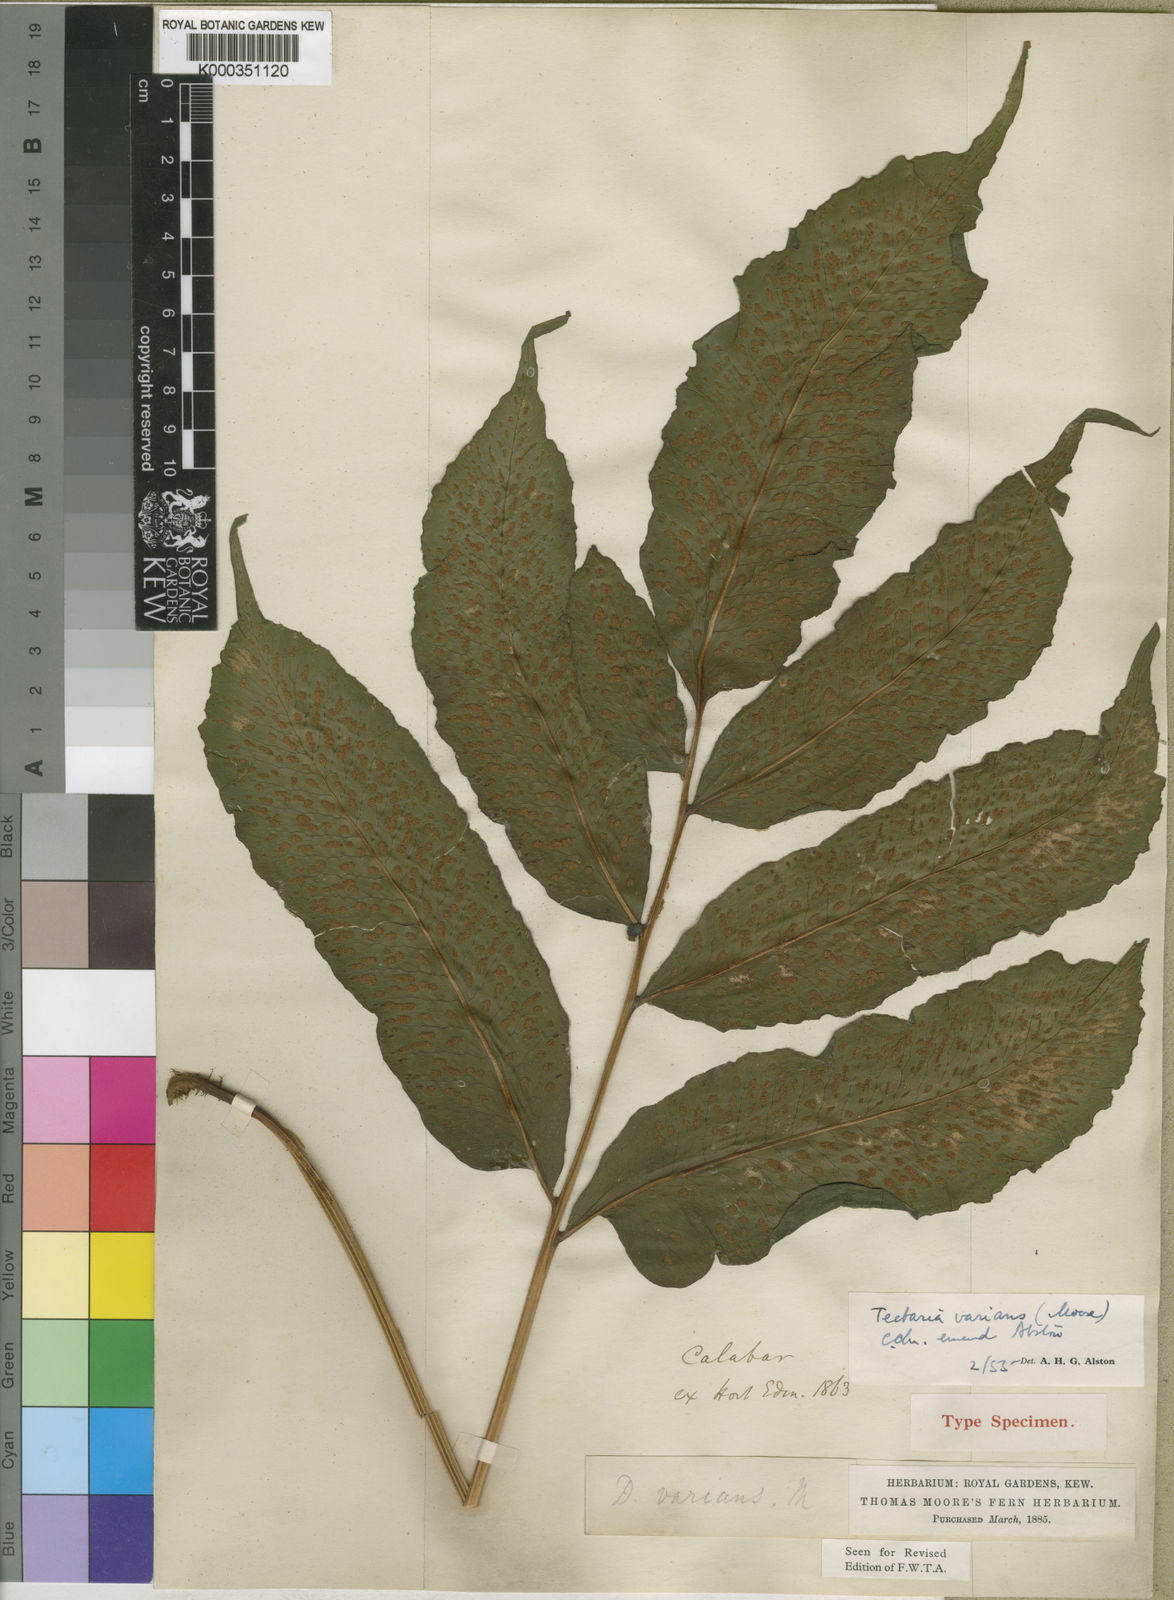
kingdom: Plantae
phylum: Tracheophyta
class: Polypodiopsida
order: Polypodiales
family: Tectariaceae
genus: Triplophyllum
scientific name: Triplophyllum varians
